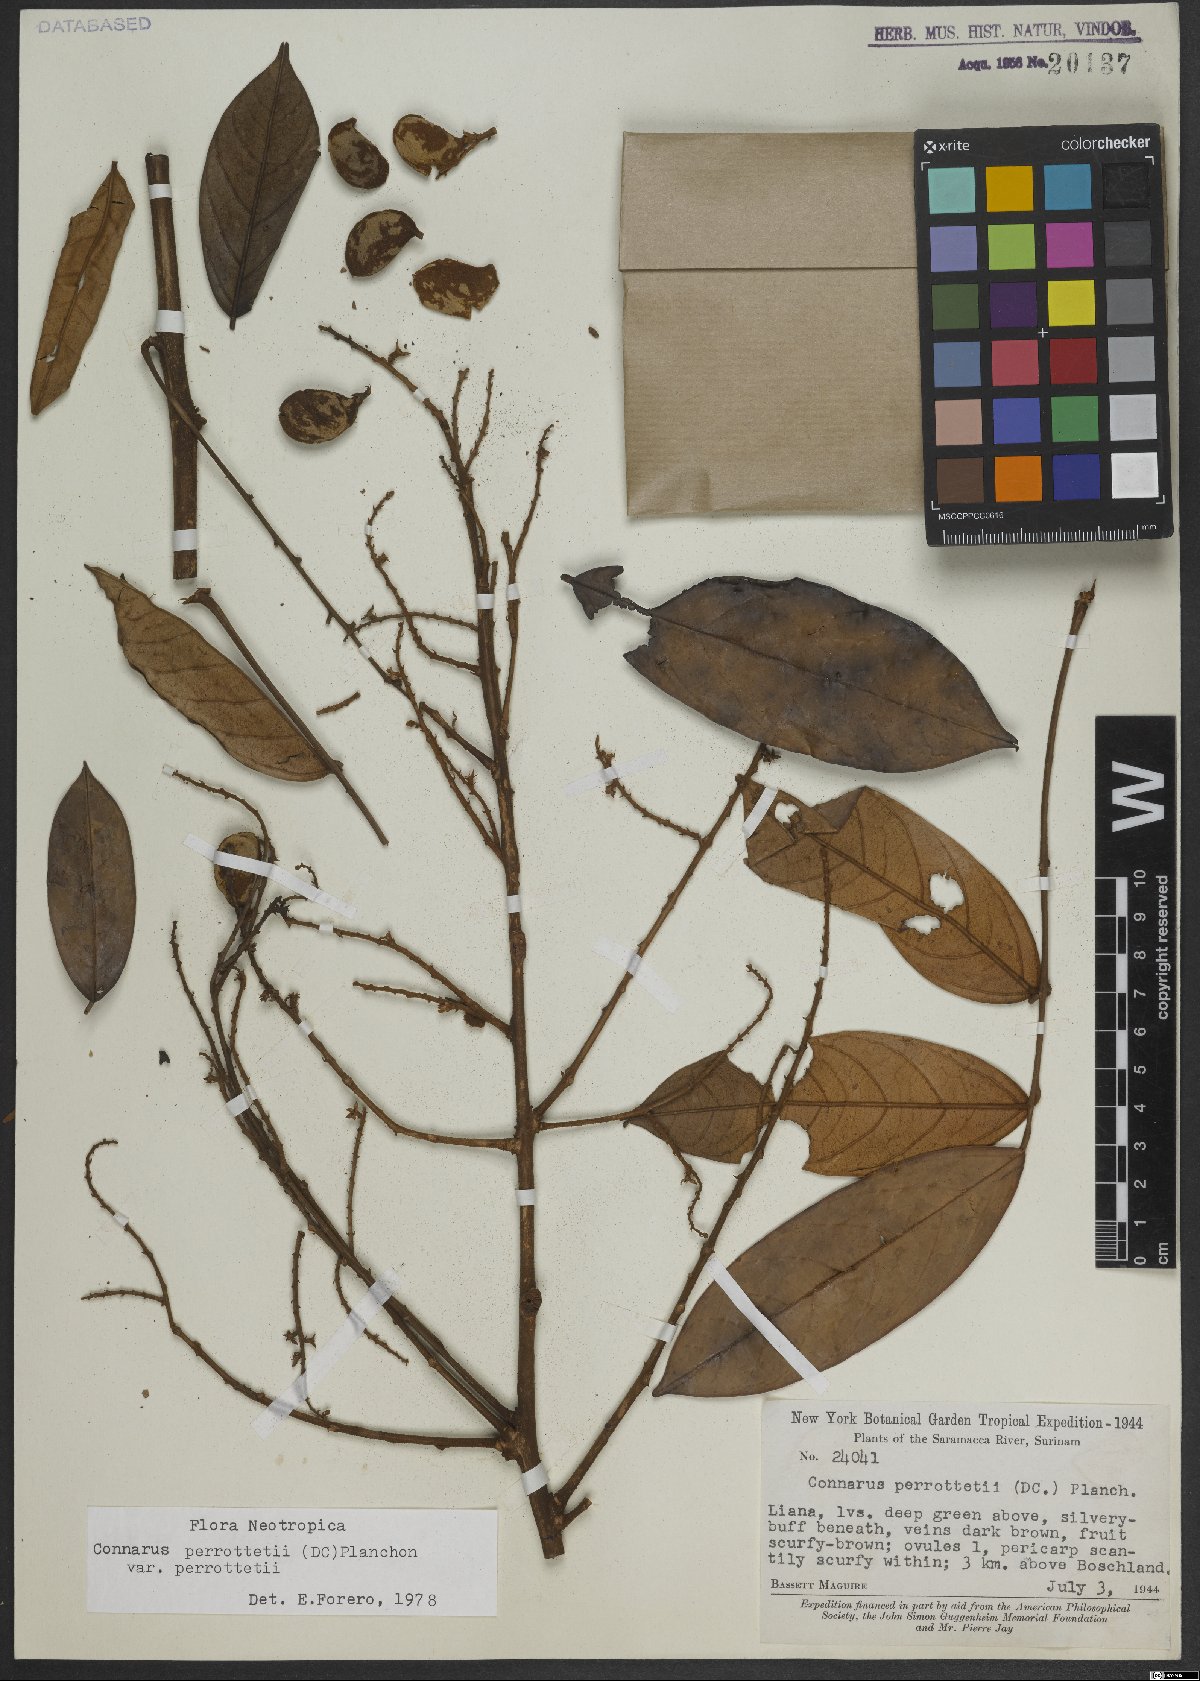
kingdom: Plantae
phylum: Tracheophyta
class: Magnoliopsida
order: Oxalidales
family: Connaraceae
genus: Connarus
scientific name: Connarus perrottetii
